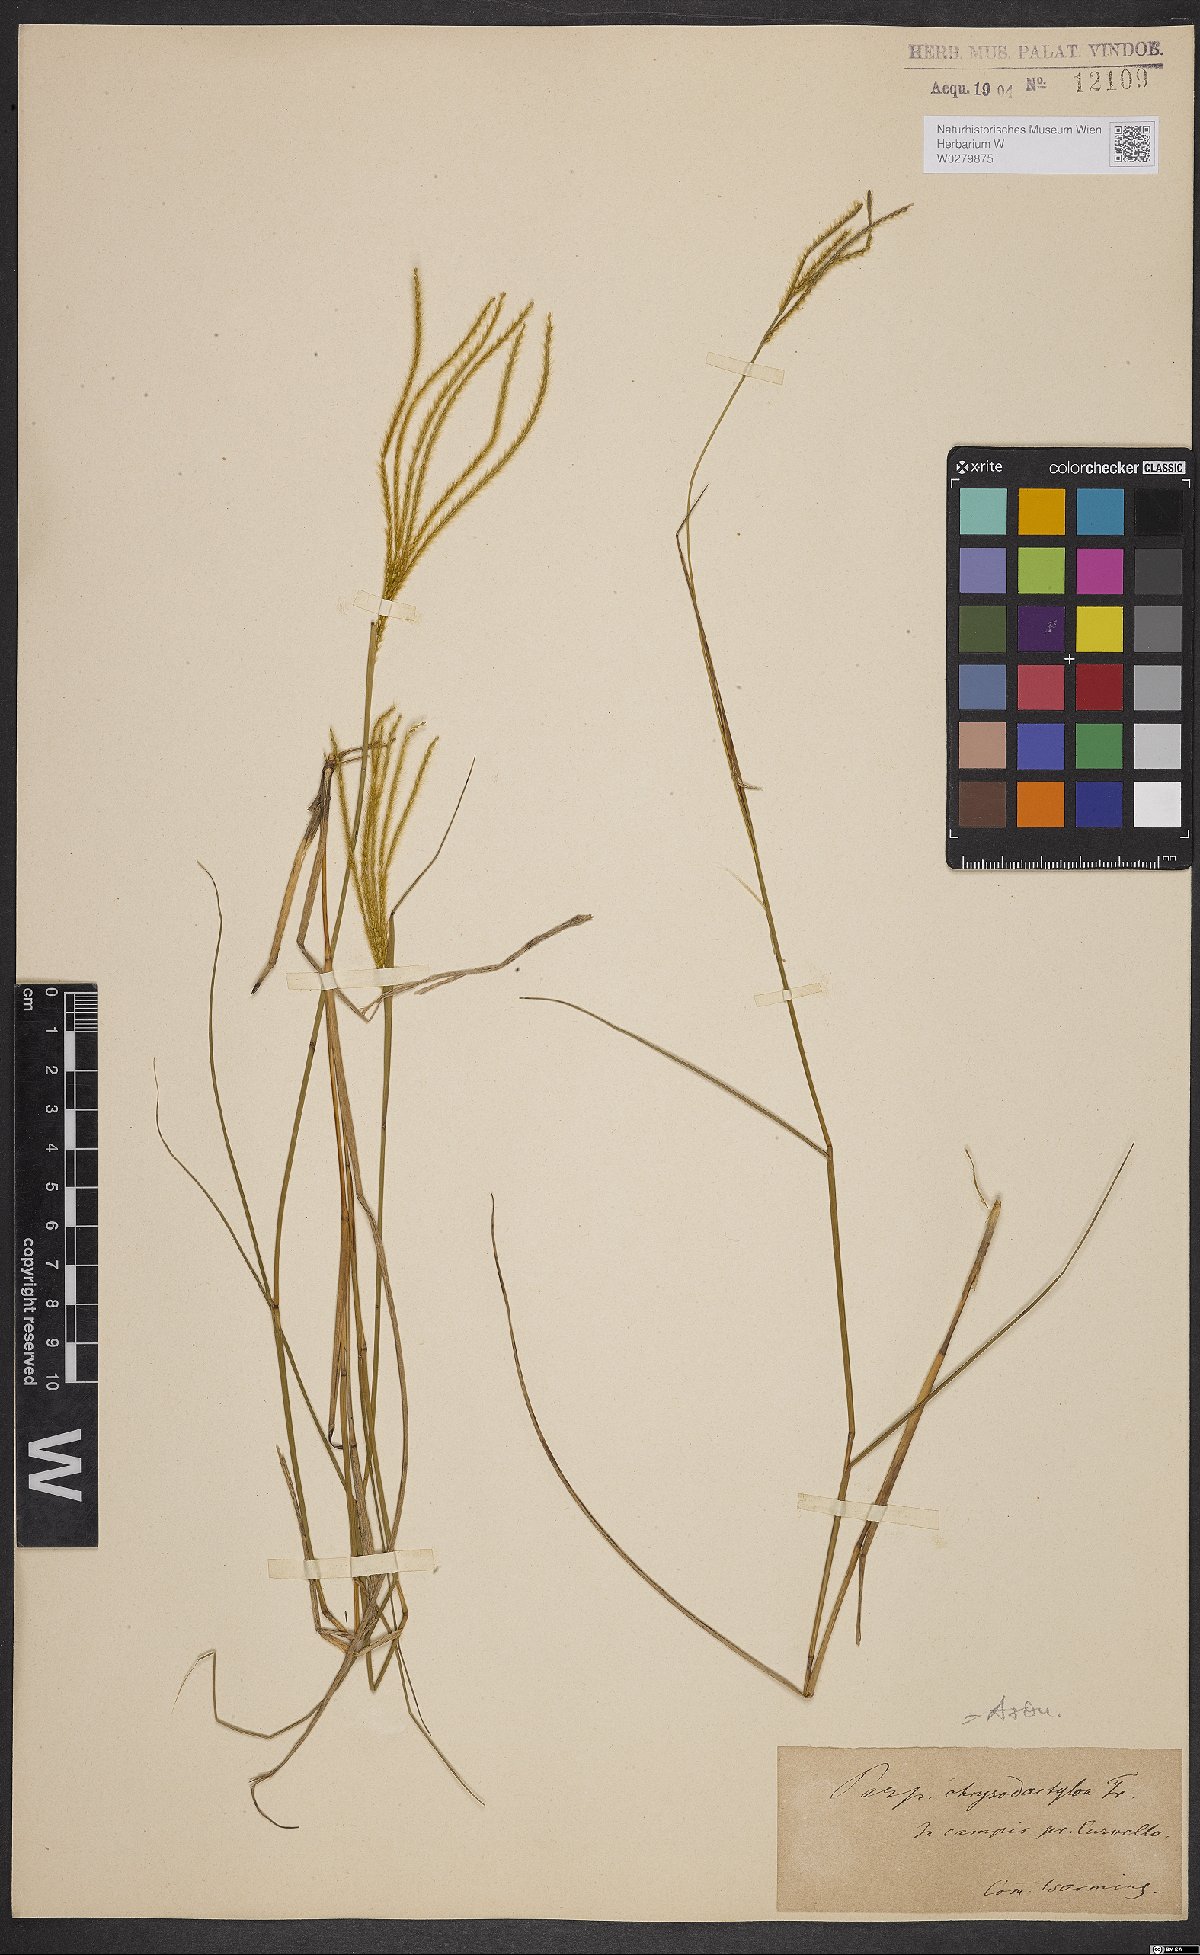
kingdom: Plantae
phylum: Tracheophyta
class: Liliopsida
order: Poales
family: Poaceae
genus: Axonopus
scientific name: Axonopus aureus
